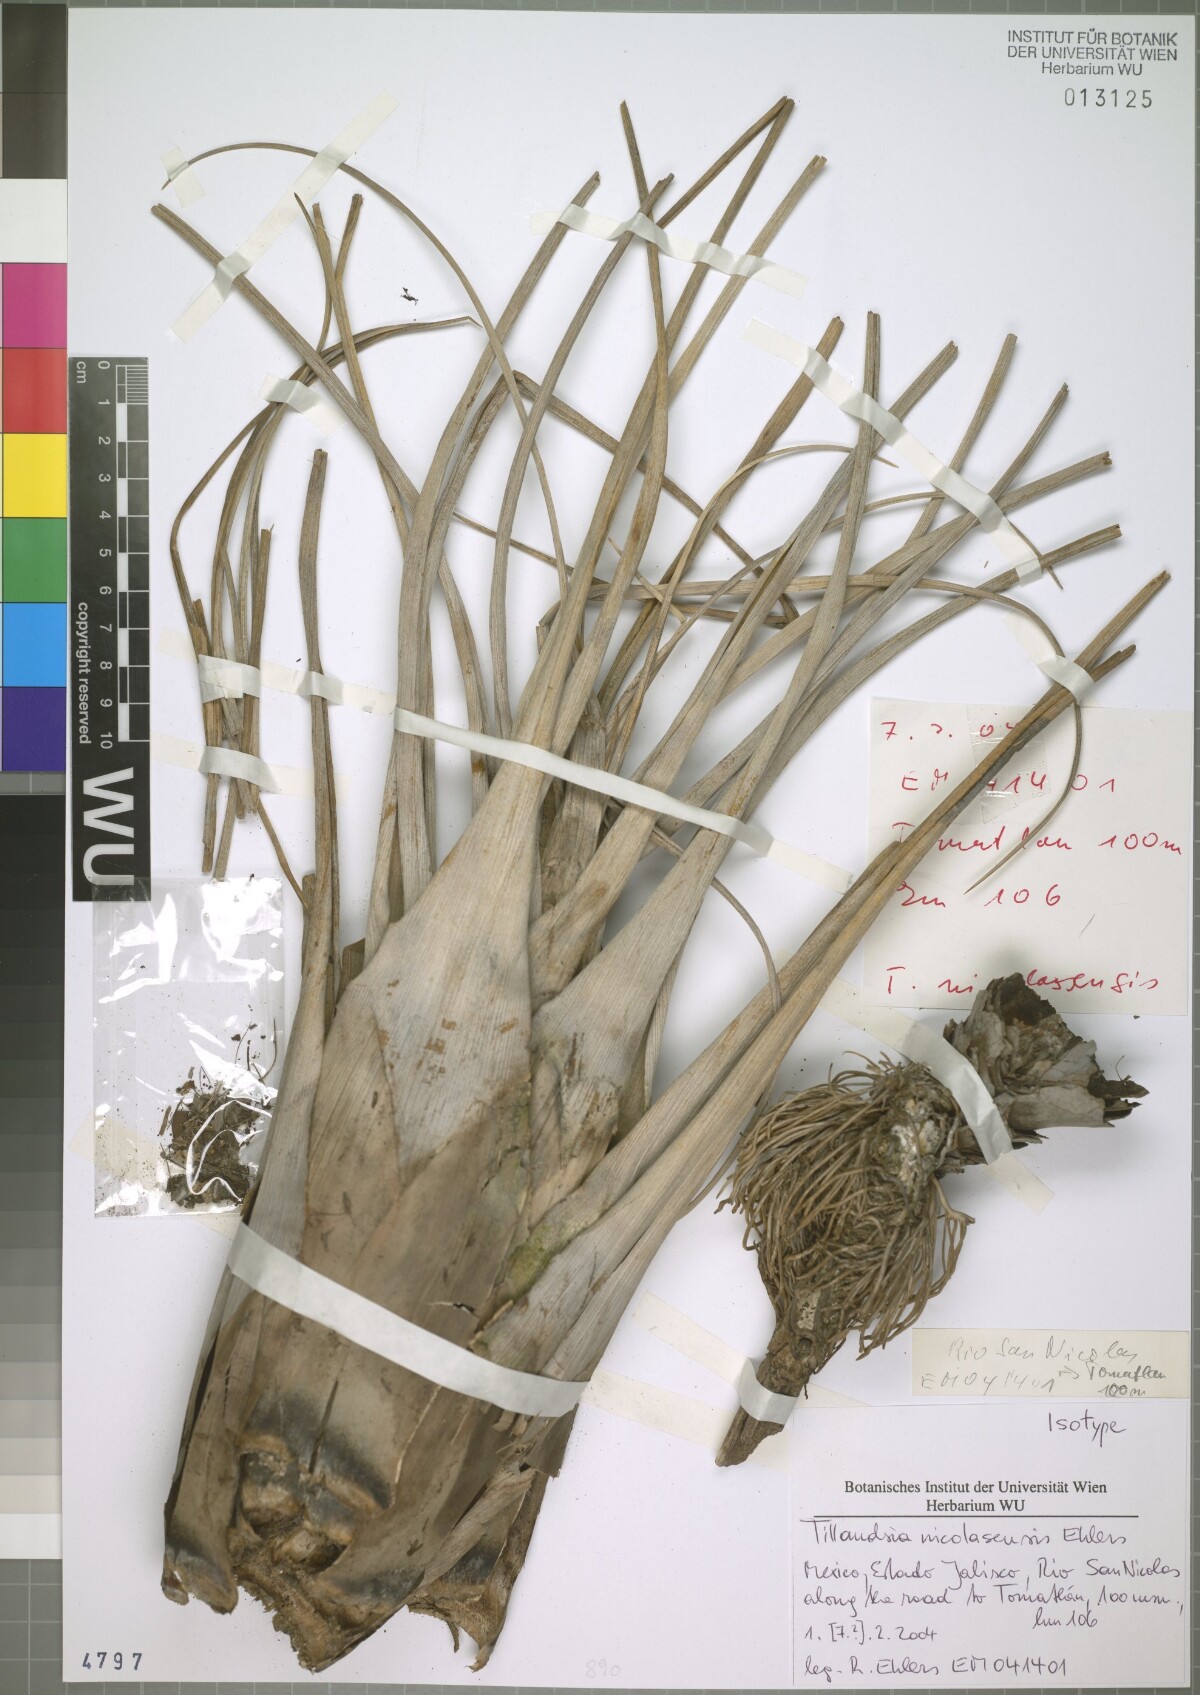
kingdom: Plantae
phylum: Tracheophyta
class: Liliopsida
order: Poales
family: Bromeliaceae
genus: Tillandsia
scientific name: Tillandsia nicolasensis
